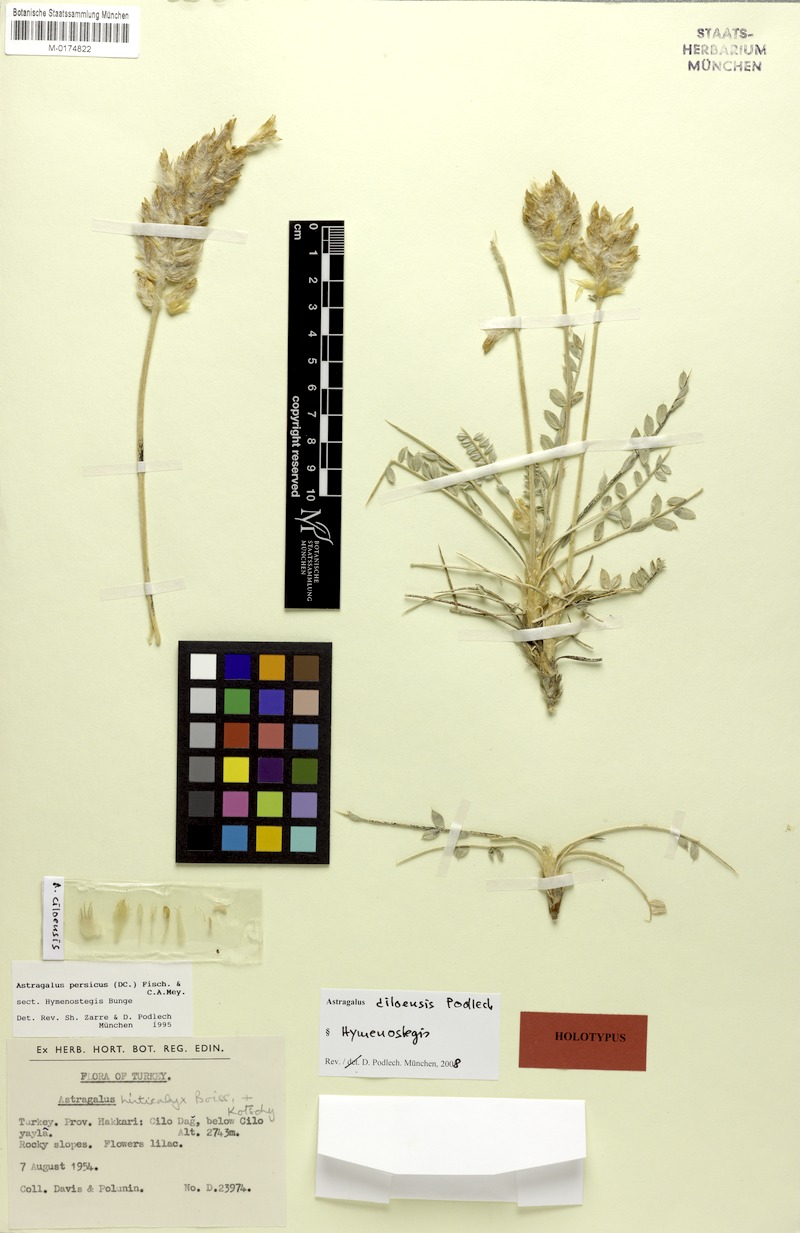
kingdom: Plantae
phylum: Tracheophyta
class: Magnoliopsida
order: Fabales
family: Fabaceae
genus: Astragalus
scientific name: Astragalus ciloensis
